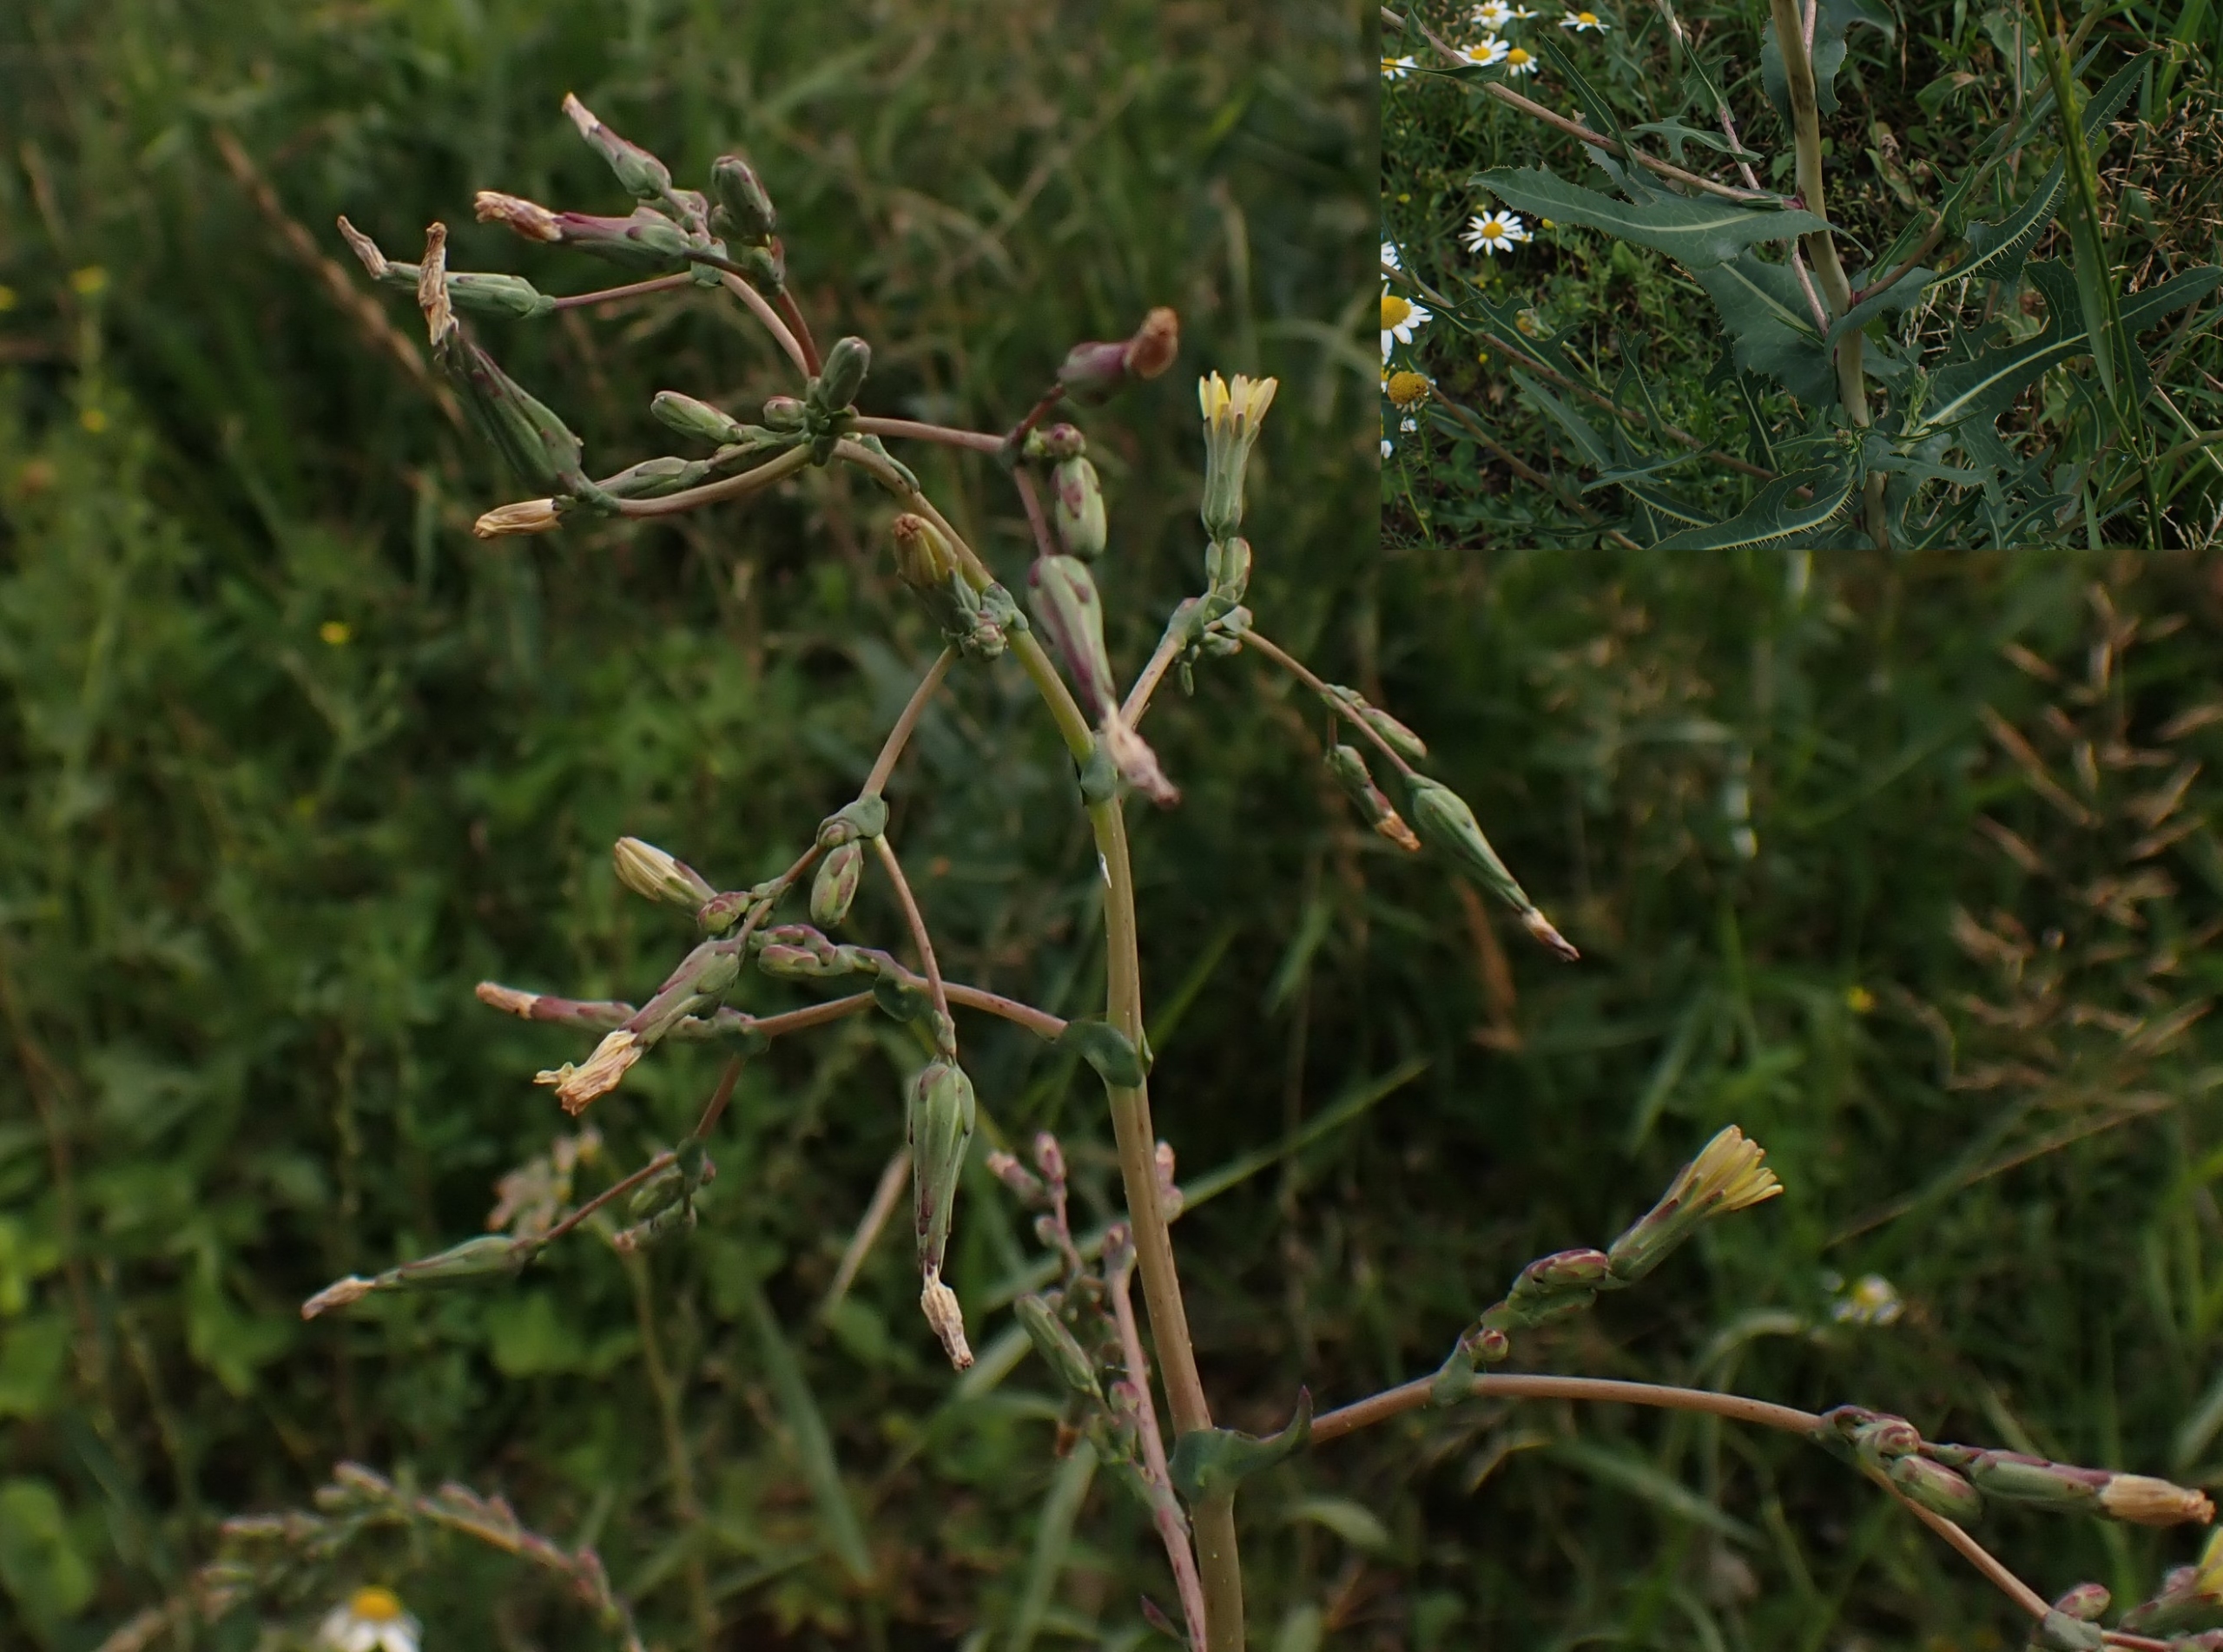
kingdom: Plantae
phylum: Tracheophyta
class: Magnoliopsida
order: Asterales
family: Asteraceae
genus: Lactuca
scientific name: Lactuca serriola
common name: Tornet salat
